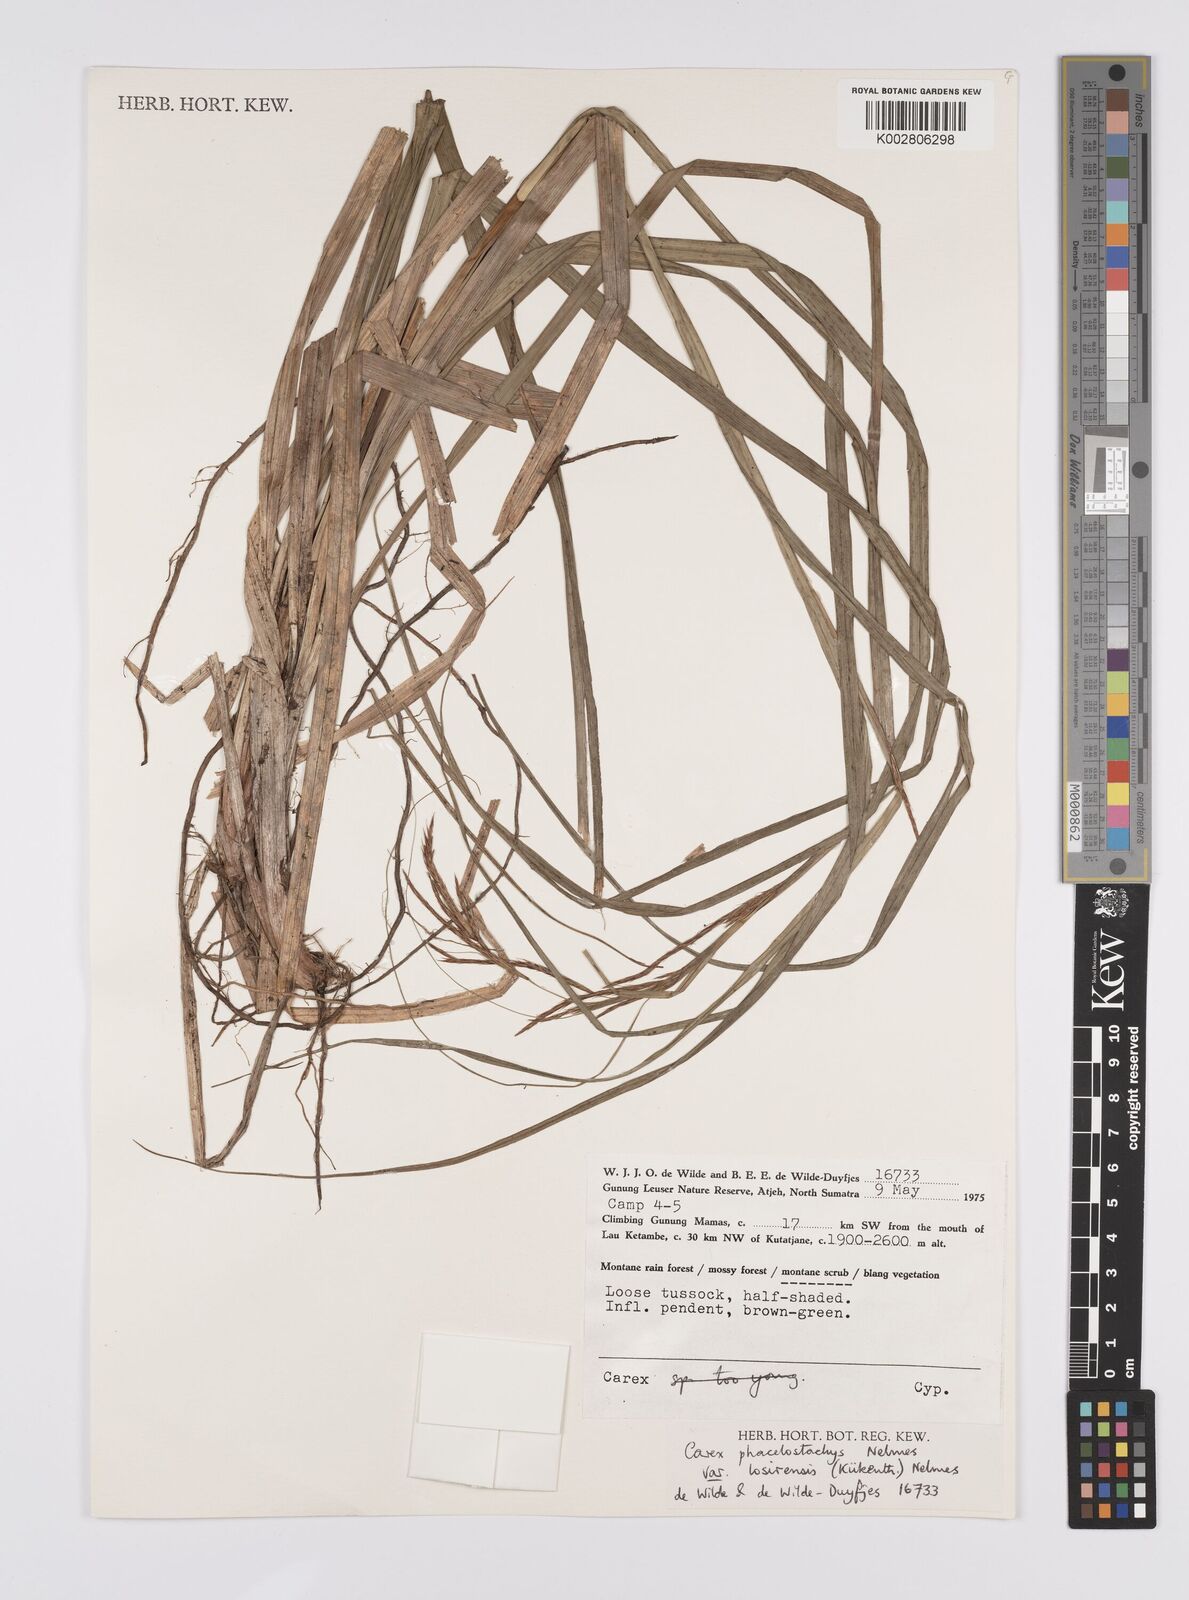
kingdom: Plantae
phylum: Tracheophyta
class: Liliopsida
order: Poales
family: Cyperaceae
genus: Carex
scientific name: Carex verticillata
